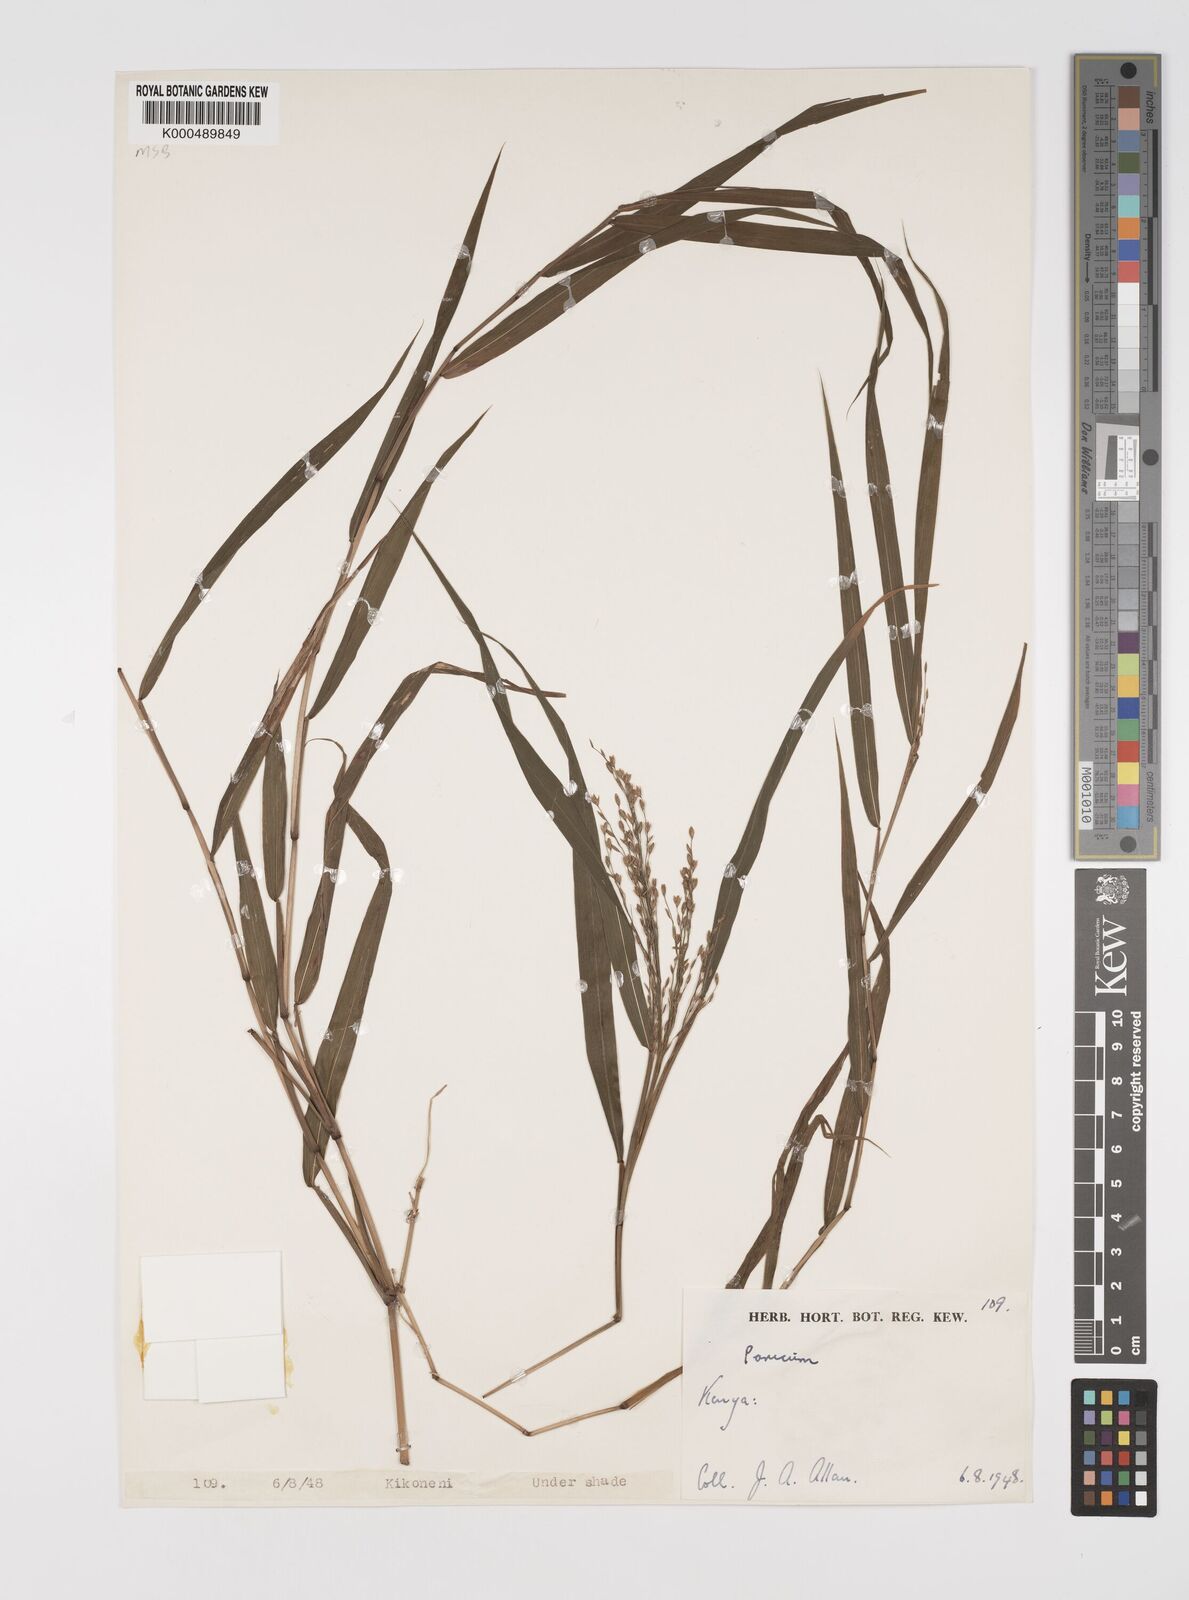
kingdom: Plantae
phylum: Tracheophyta
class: Liliopsida
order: Poales
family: Poaceae
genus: Acroceras
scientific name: Acroceras attenuatum
